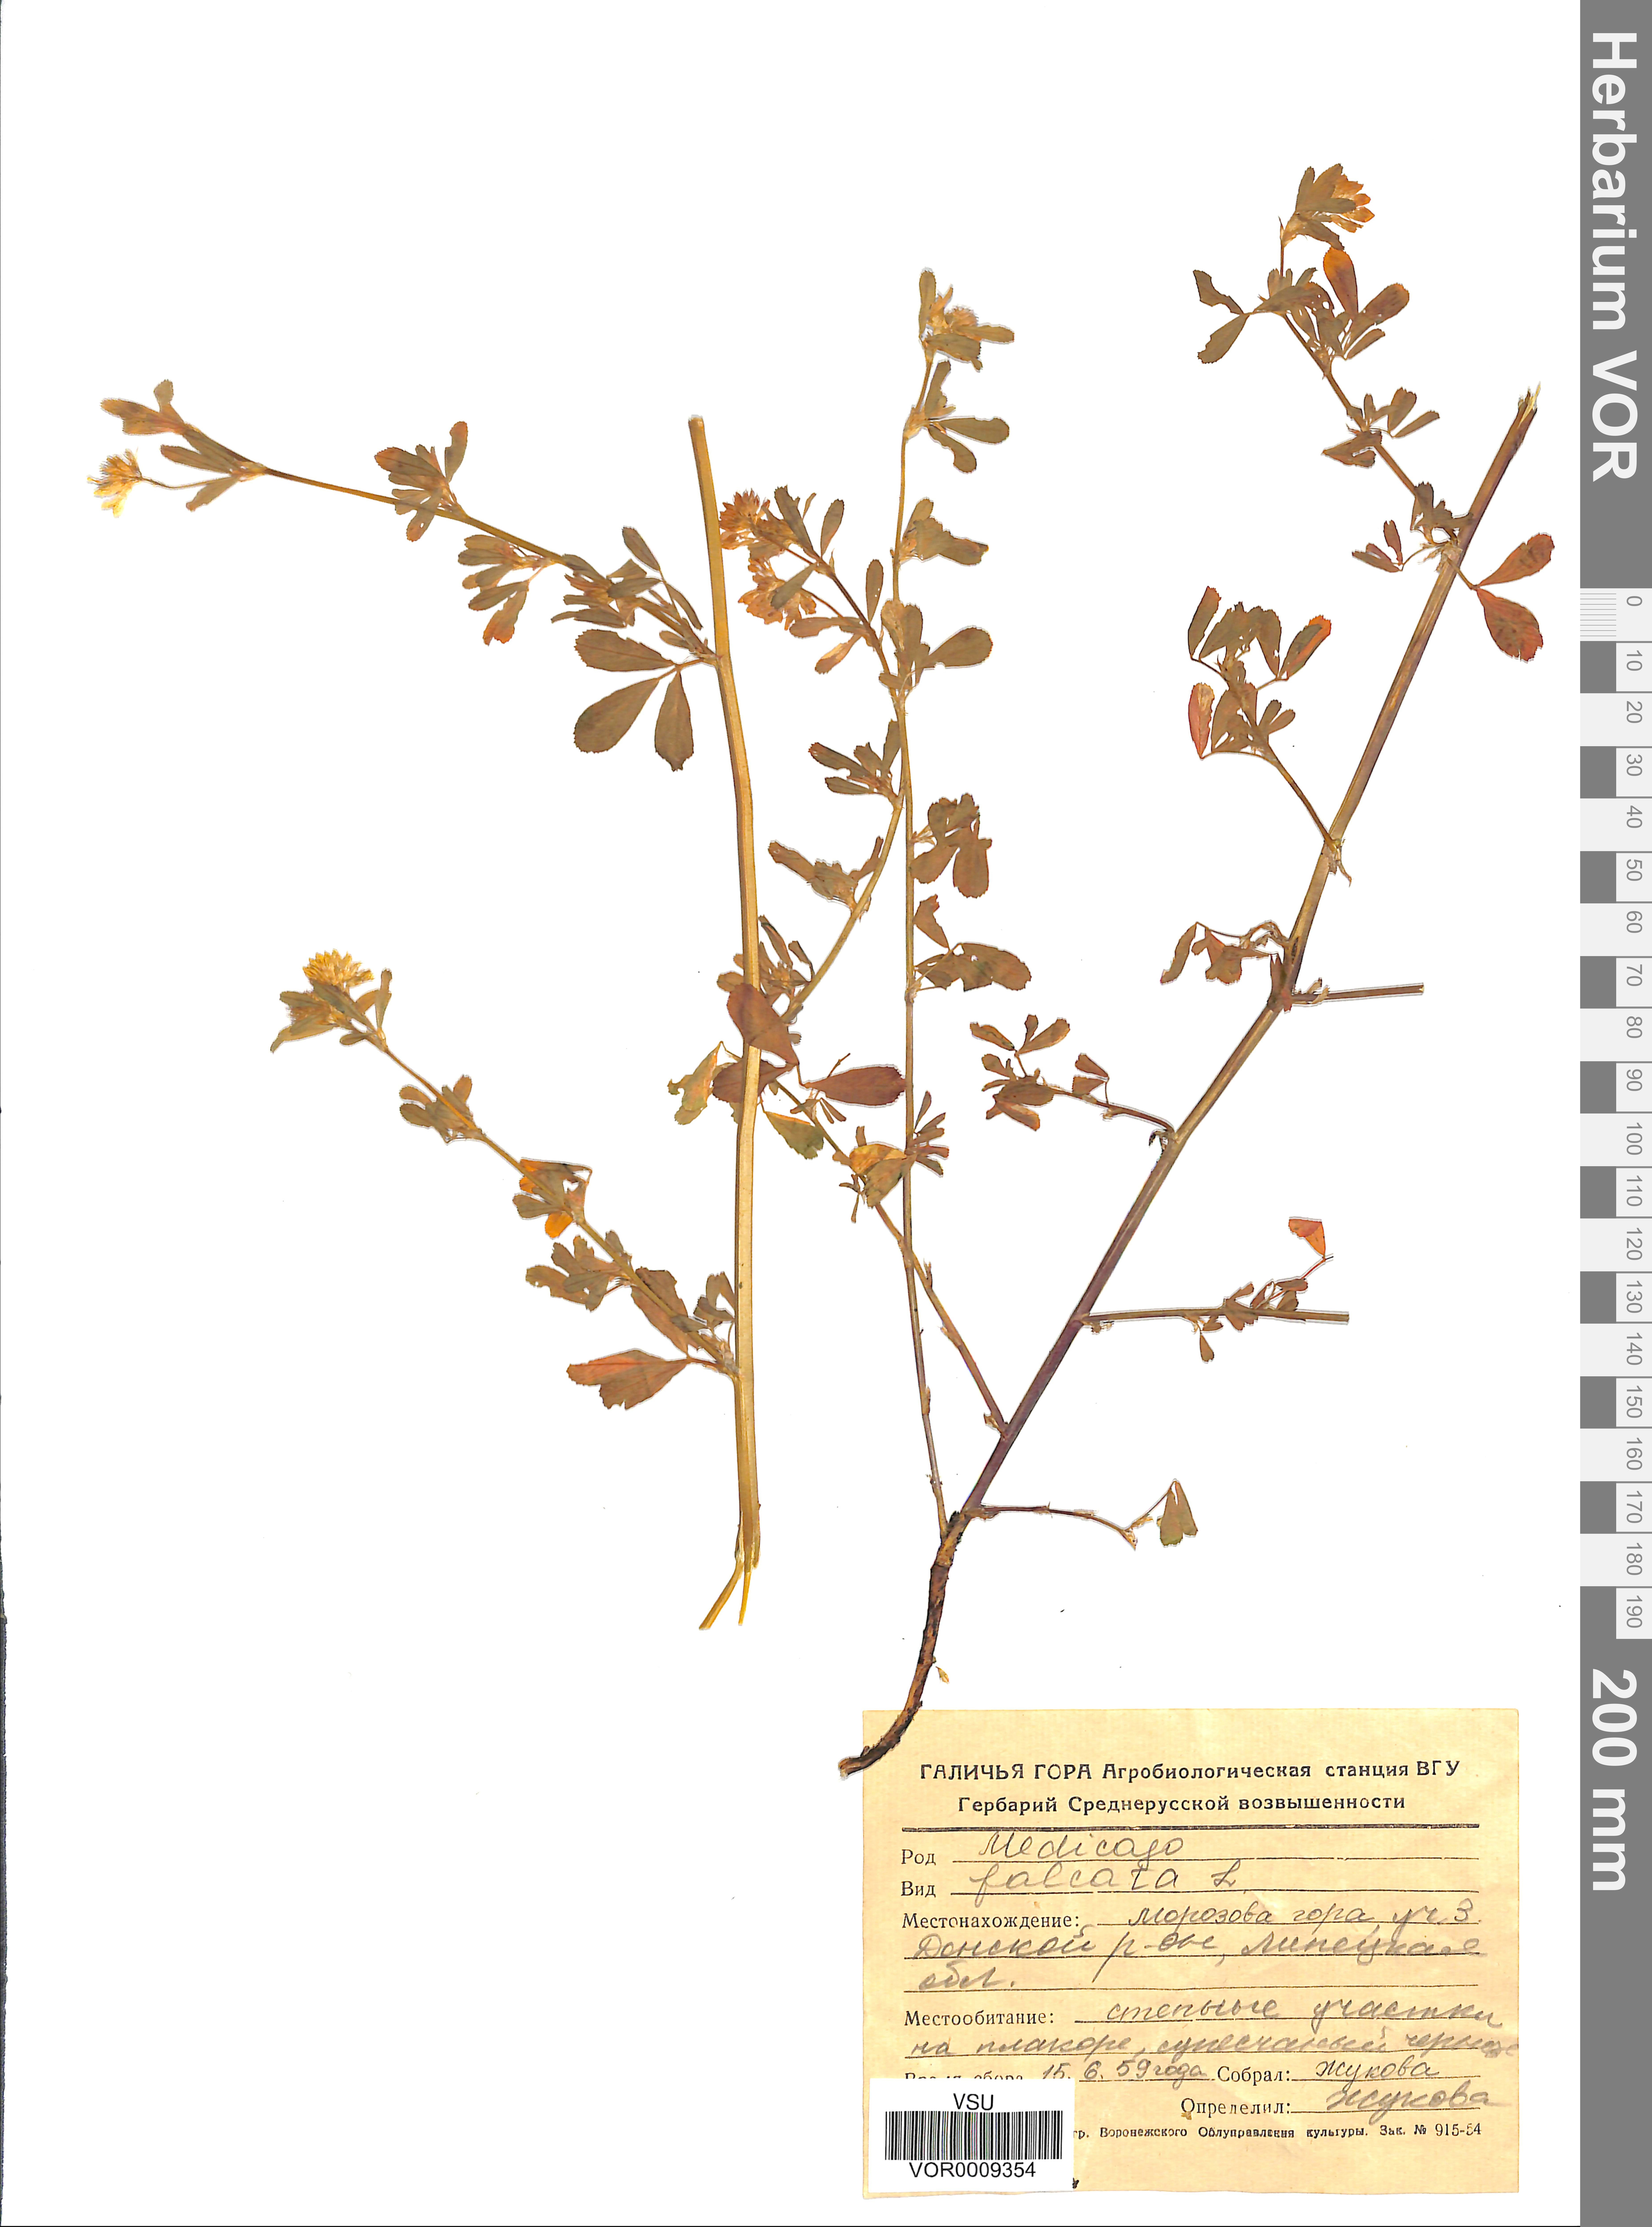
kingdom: Plantae
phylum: Tracheophyta
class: Magnoliopsida
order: Fabales
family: Fabaceae
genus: Medicago
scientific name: Medicago falcata
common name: Sickle medick
